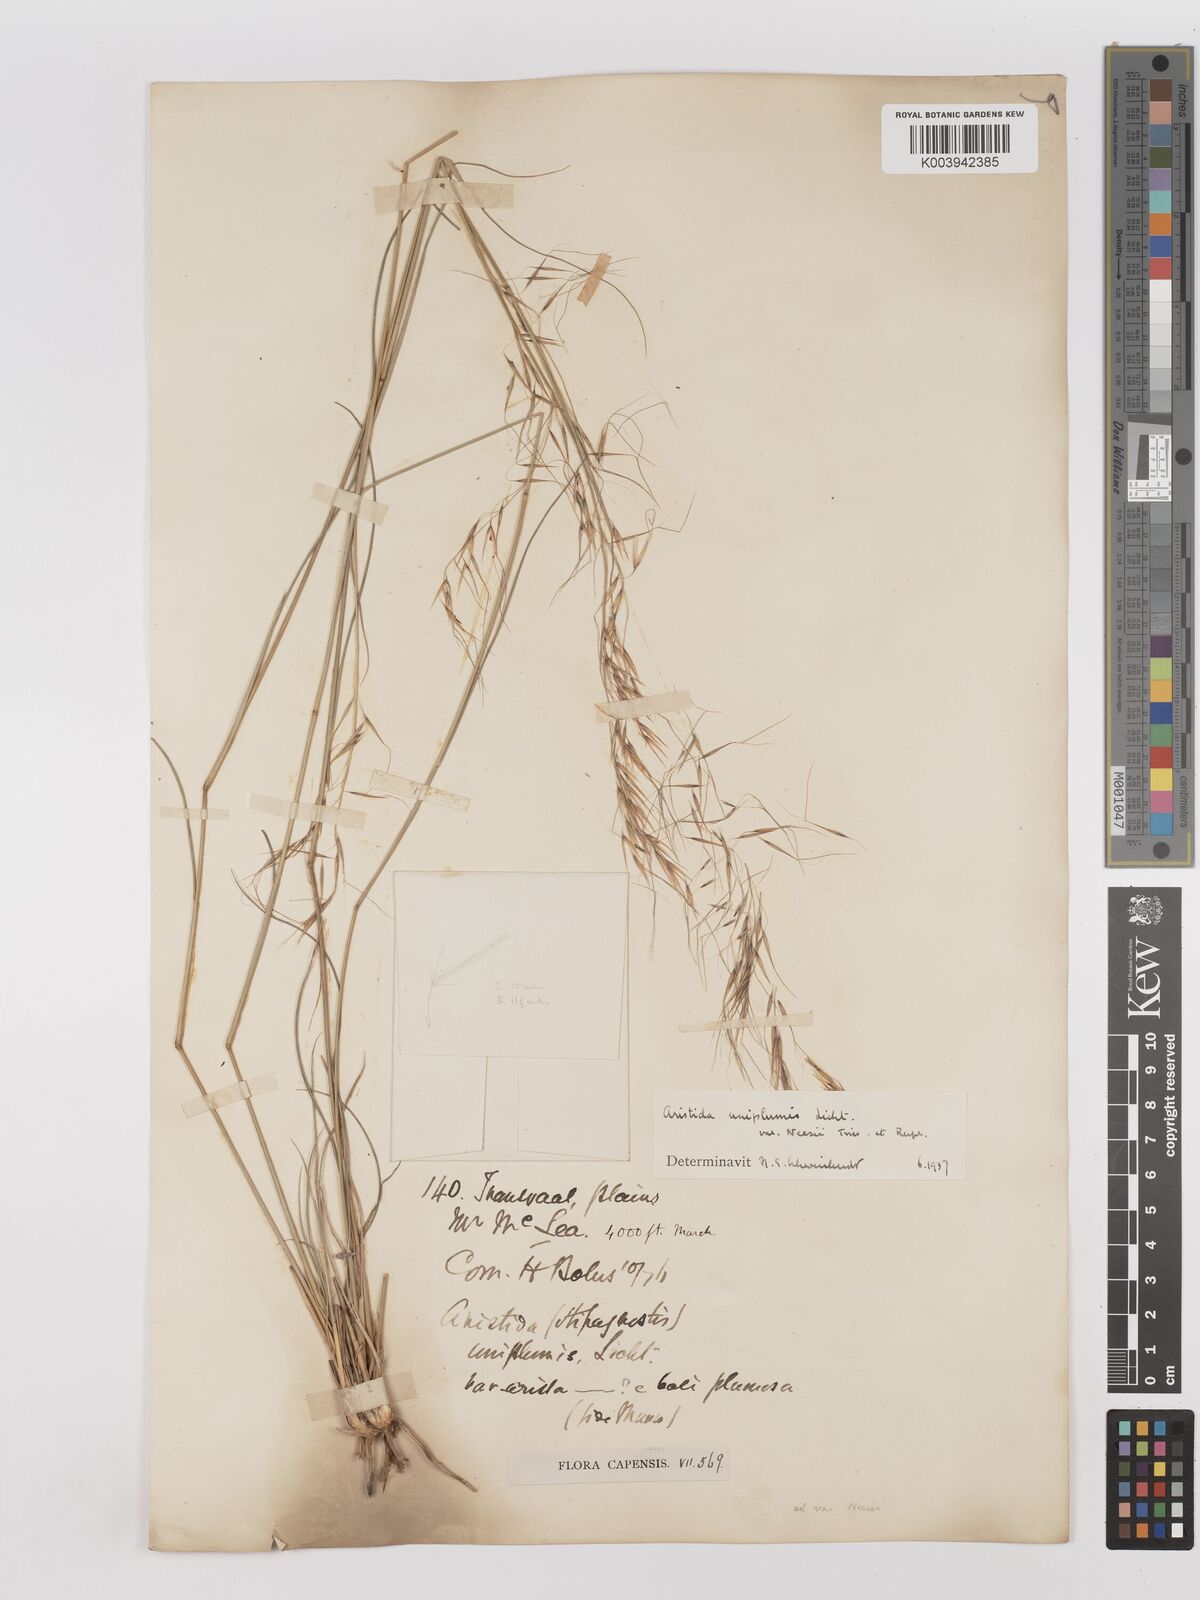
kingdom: Plantae
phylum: Tracheophyta
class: Liliopsida
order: Poales
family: Poaceae
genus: Stipagrostis
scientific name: Stipagrostis uniplumis
